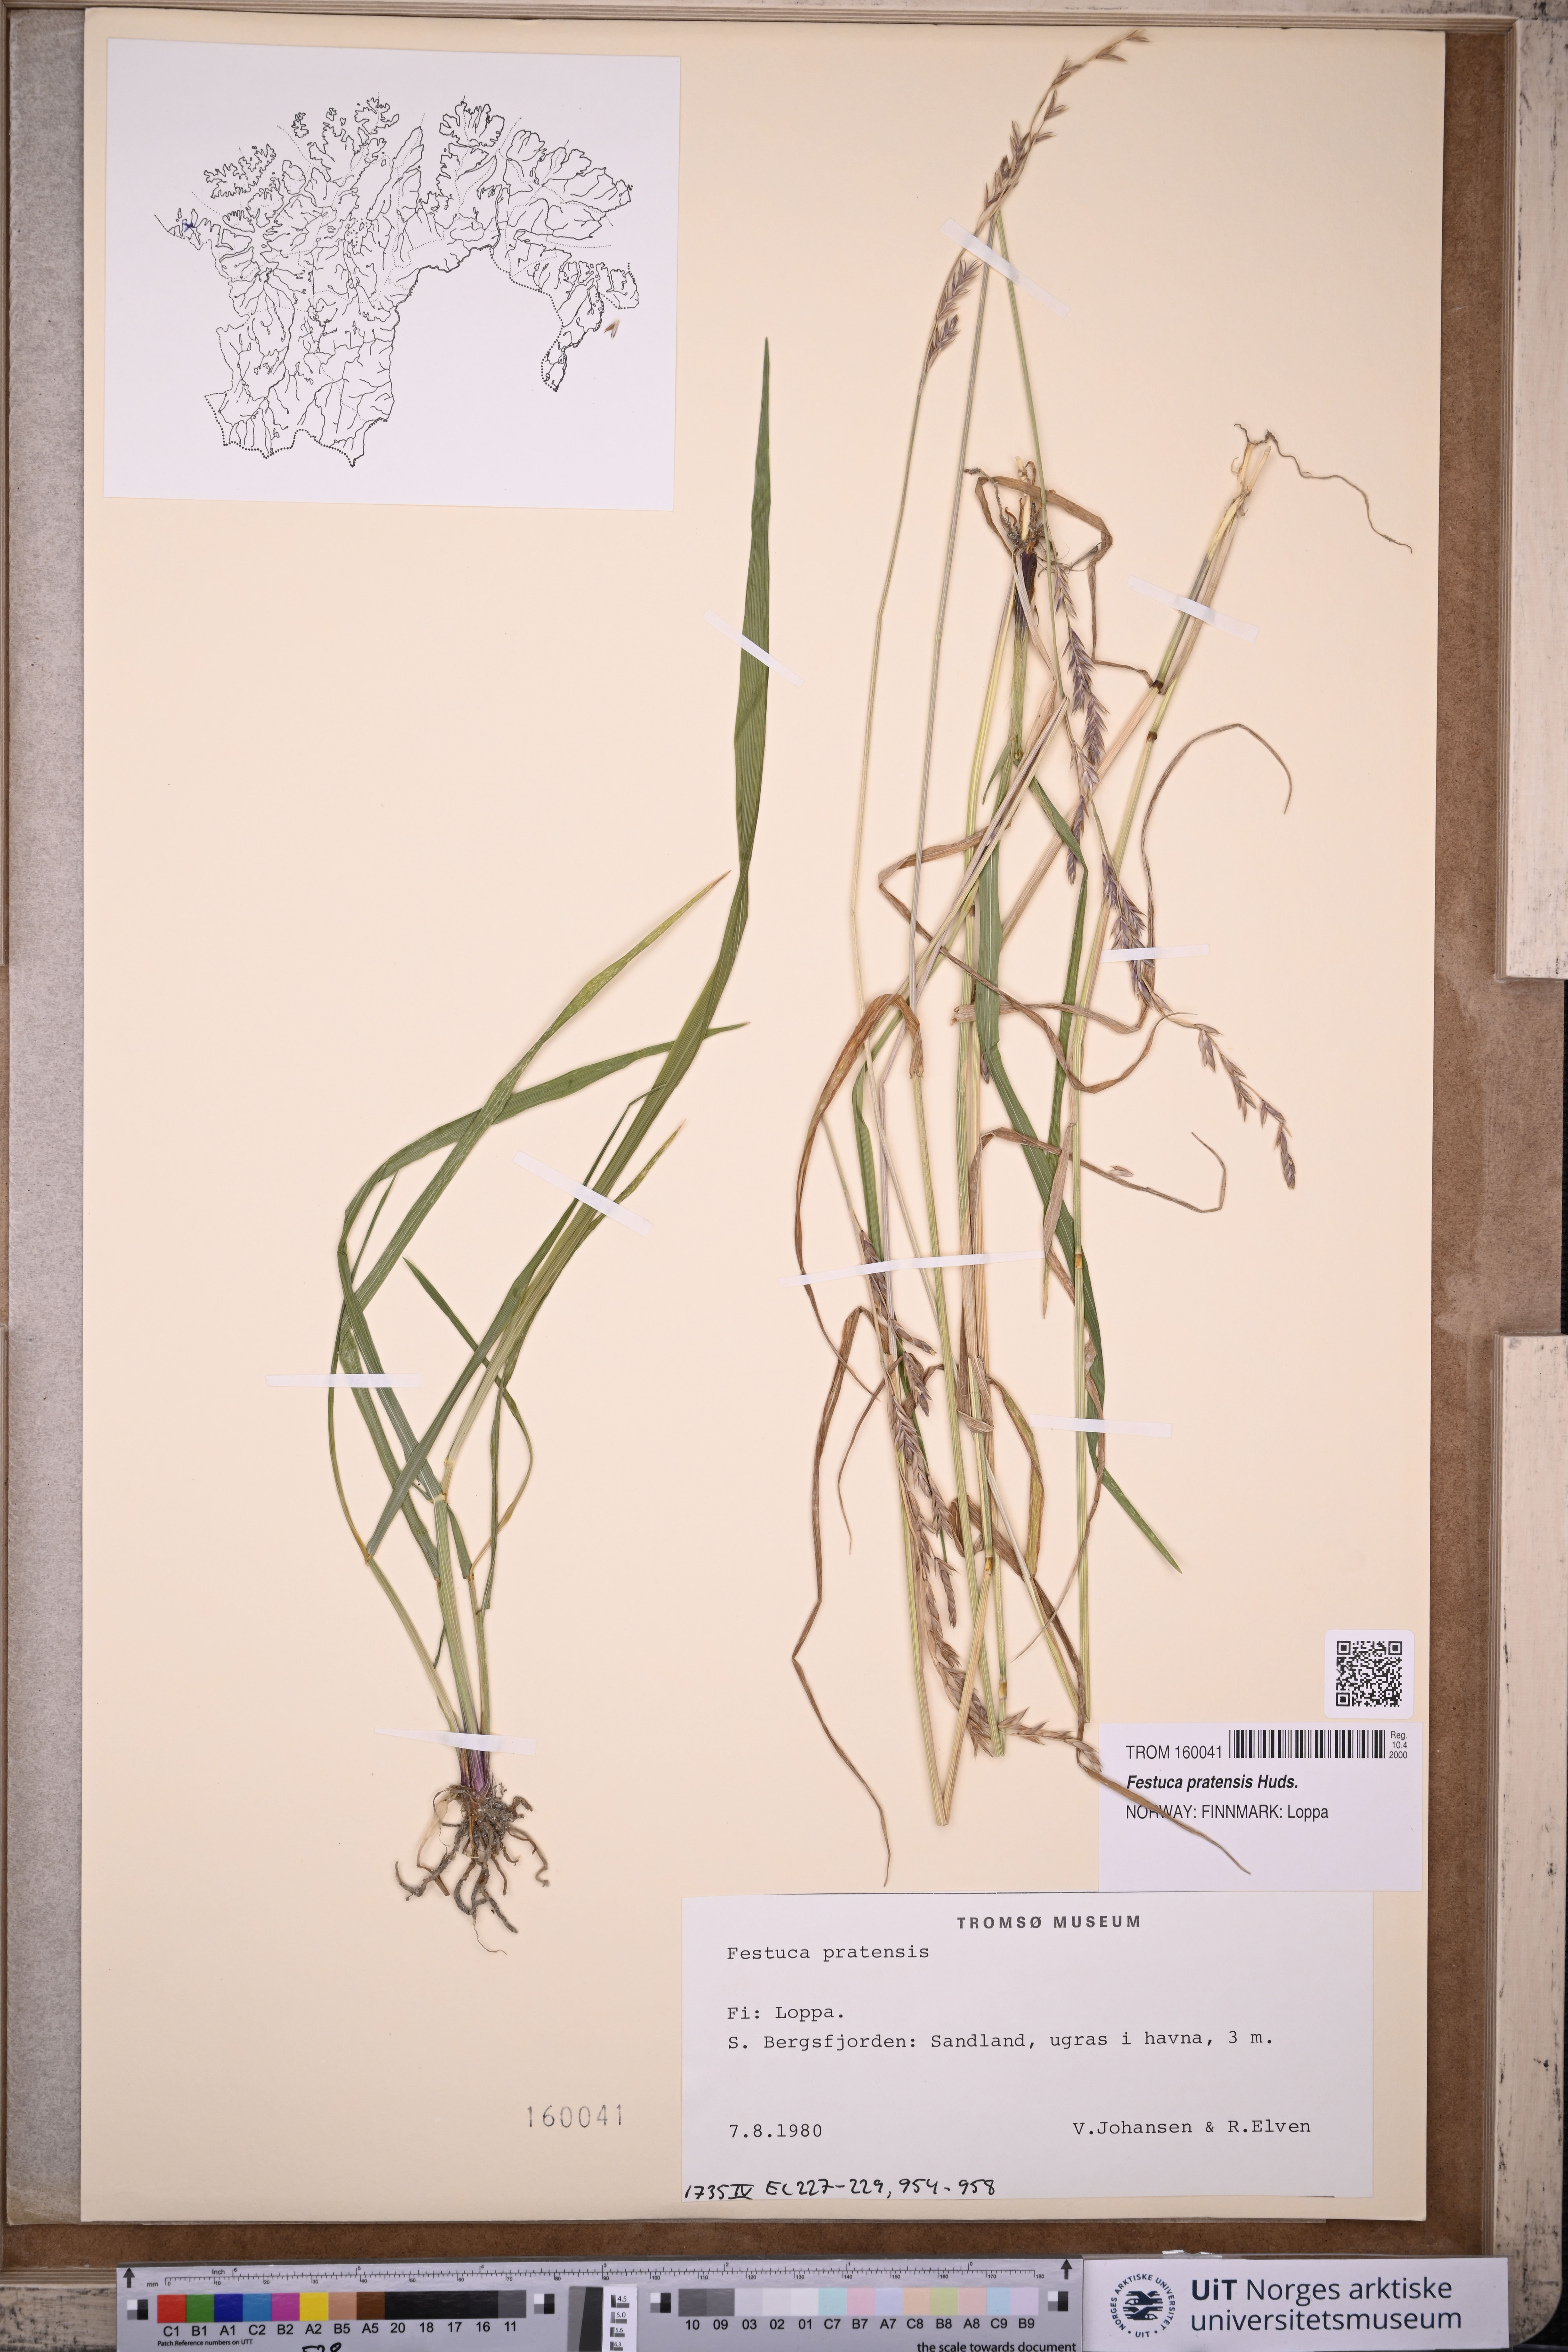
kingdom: Plantae
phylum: Tracheophyta
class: Liliopsida
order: Poales
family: Poaceae
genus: Lolium
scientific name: Lolium pratense
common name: Dover grass
